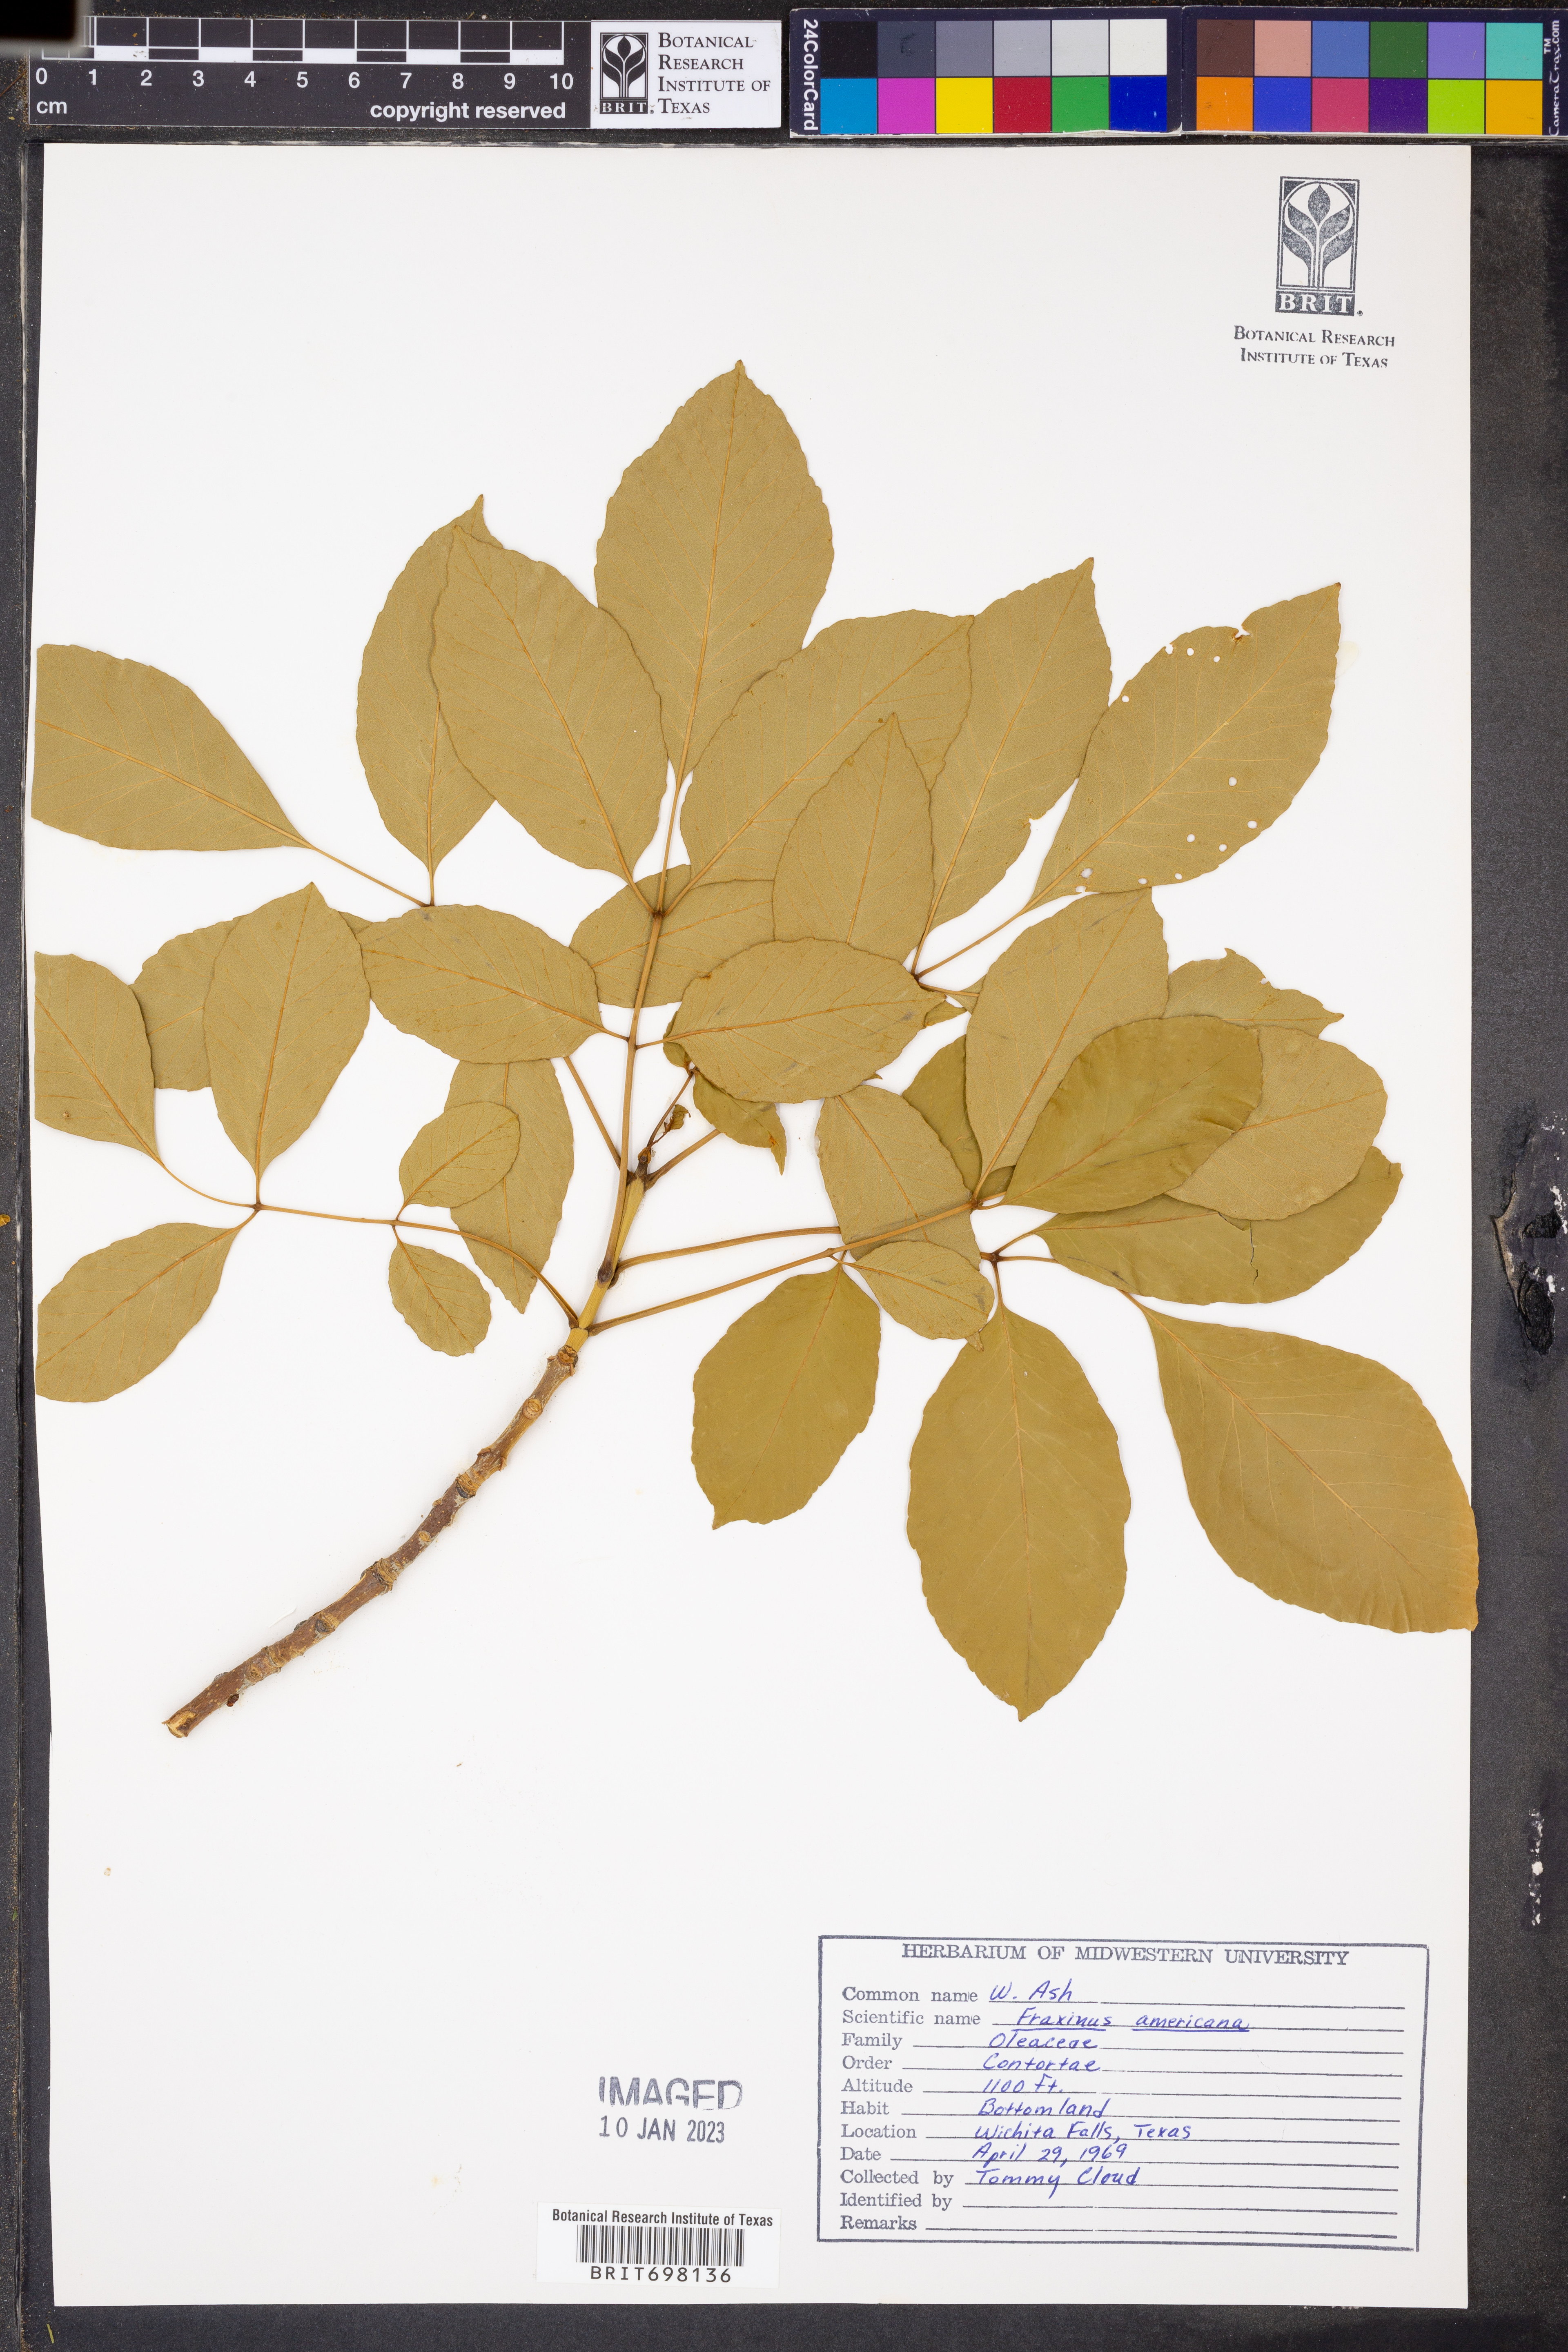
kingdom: Plantae
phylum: Tracheophyta
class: Magnoliopsida
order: Lamiales
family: Oleaceae
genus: Fraxinus
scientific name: Fraxinus americana
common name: White ash
